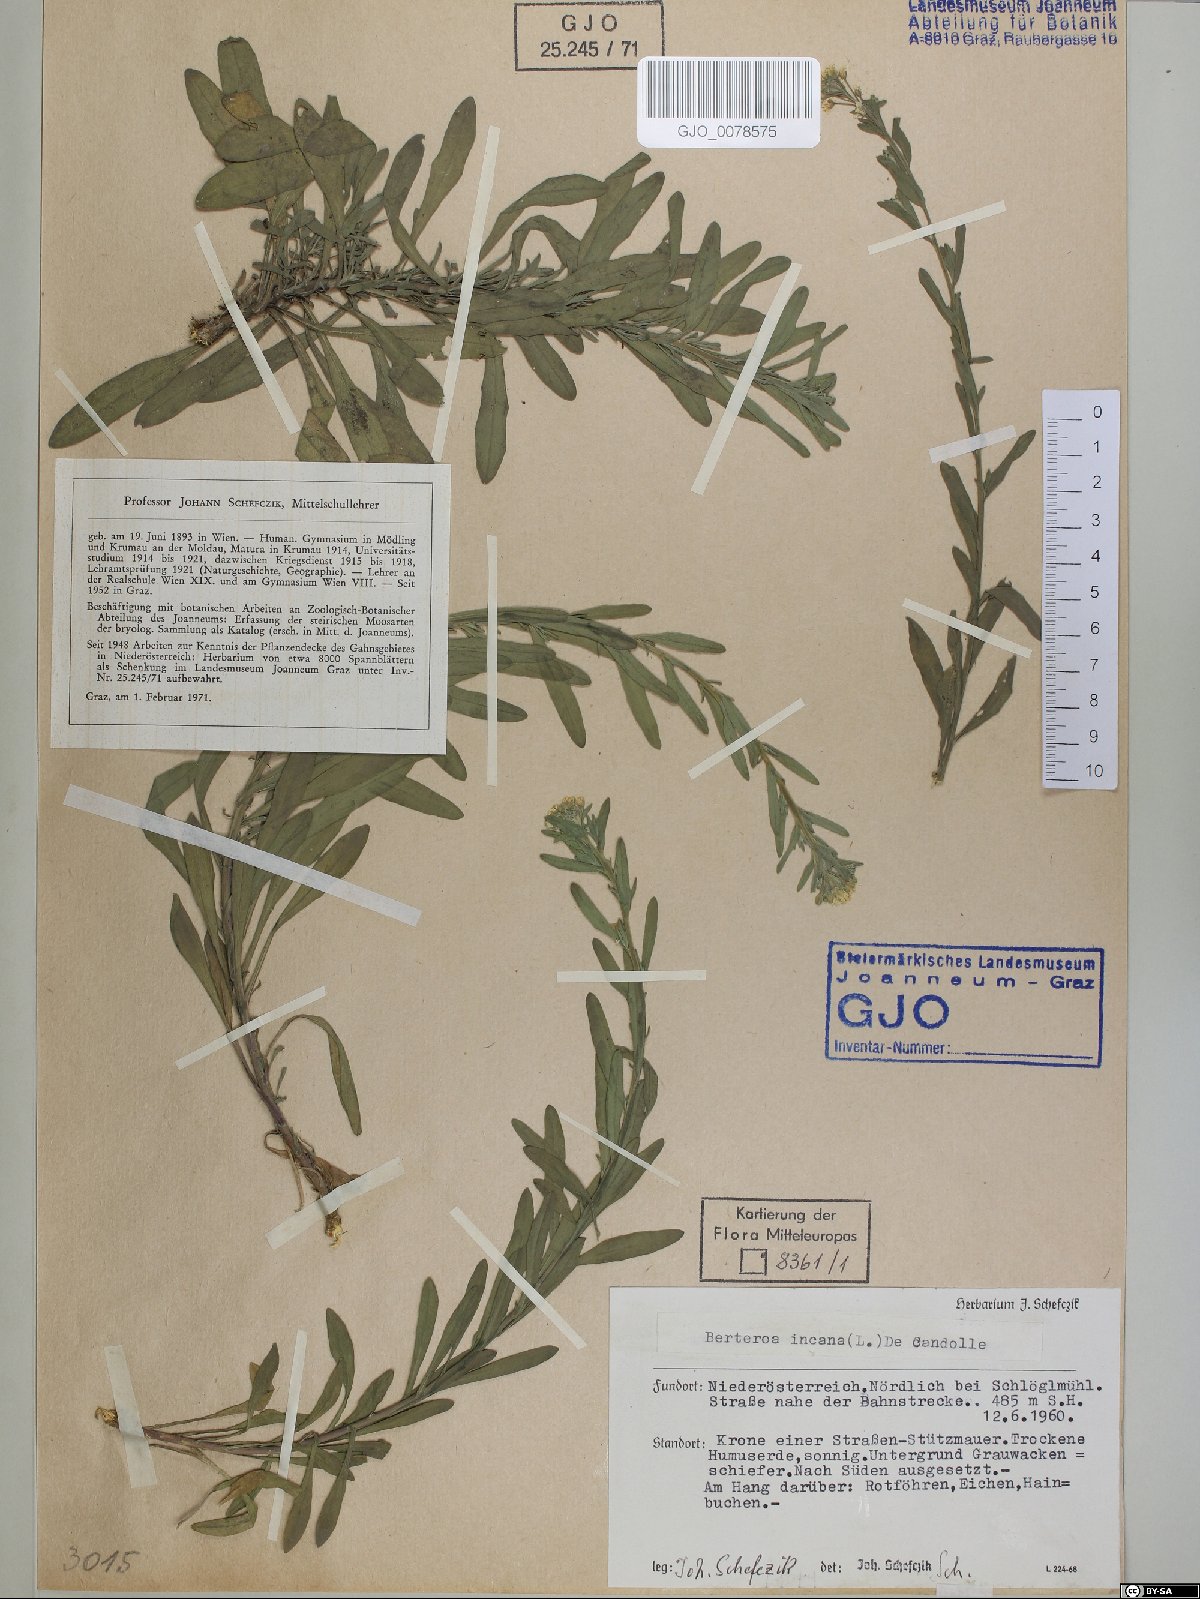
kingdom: Plantae
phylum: Tracheophyta
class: Magnoliopsida
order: Brassicales
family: Brassicaceae
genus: Berteroa
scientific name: Berteroa incana
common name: Hoary alison
